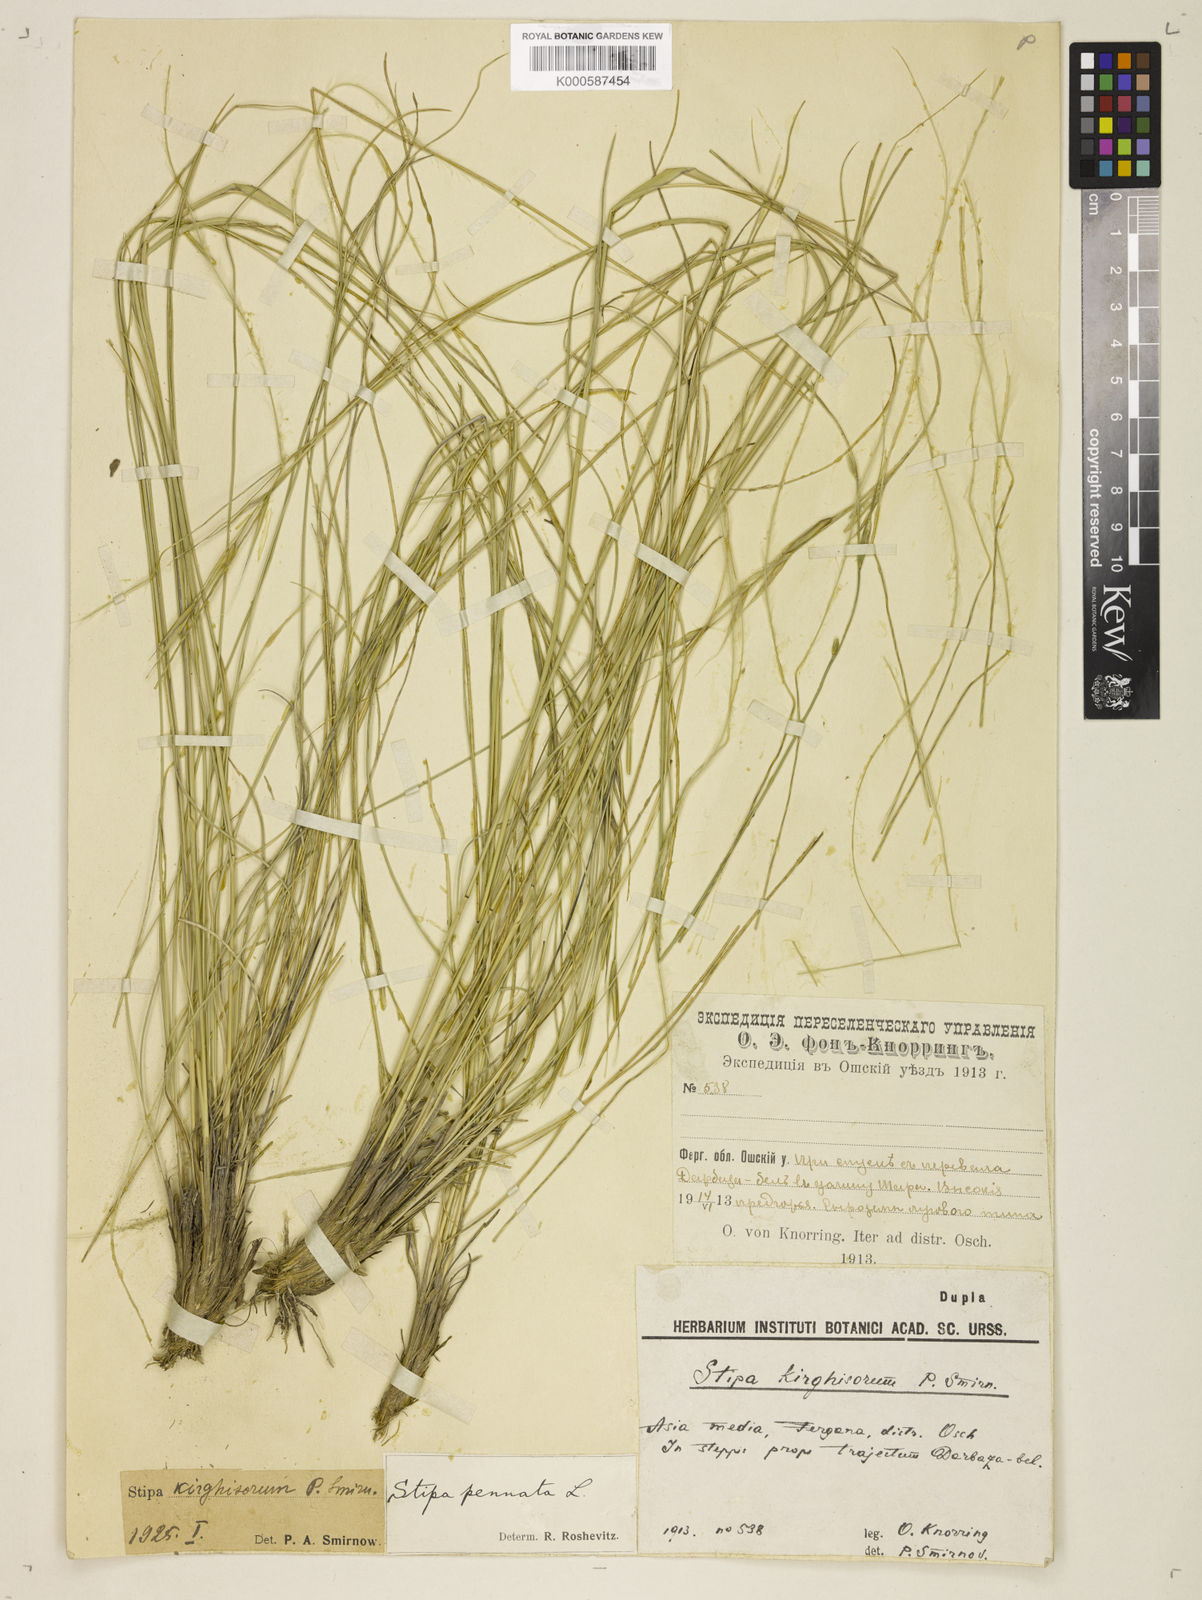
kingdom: Plantae
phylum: Tracheophyta
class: Liliopsida
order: Poales
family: Poaceae
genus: Stipa
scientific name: Stipa kirghisorum
